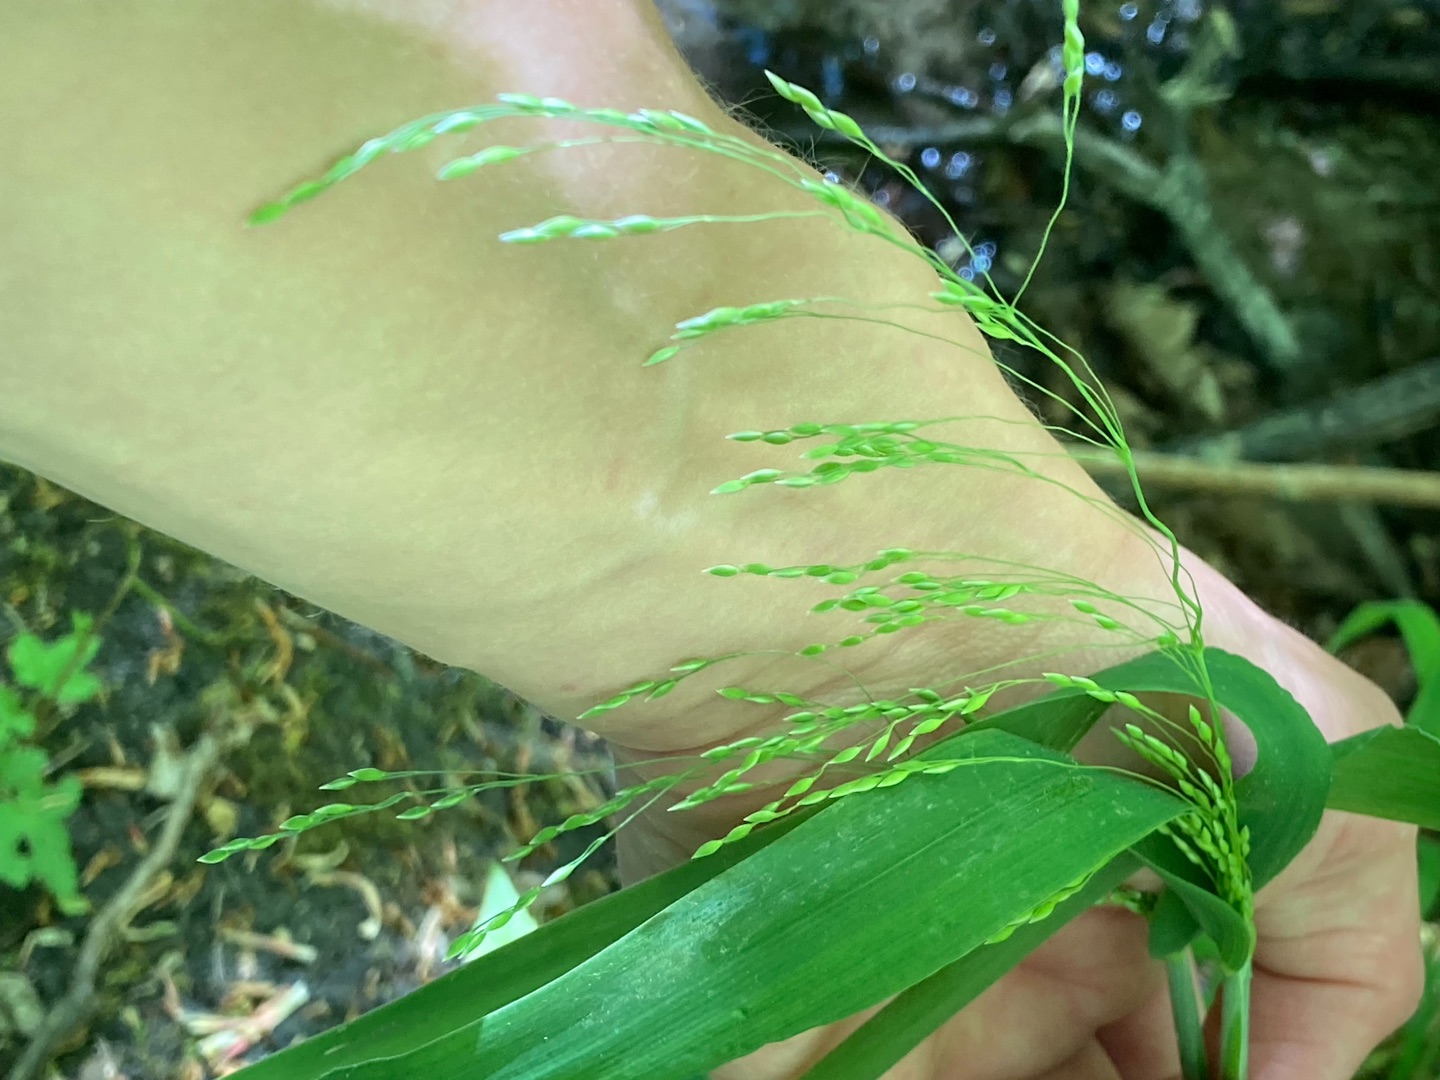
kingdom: Plantae
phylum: Tracheophyta
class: Liliopsida
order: Poales
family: Poaceae
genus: Milium
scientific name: Milium effusum
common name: Miliegræs
